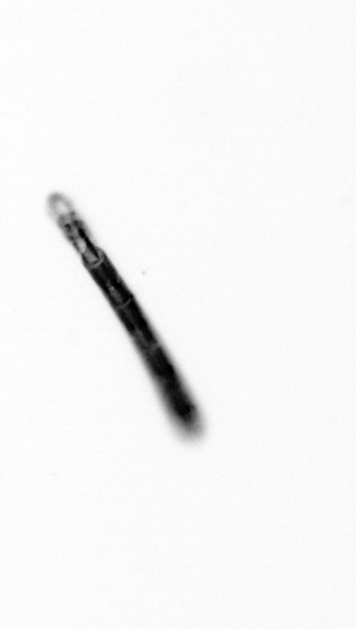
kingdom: Chromista
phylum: Ochrophyta
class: Bacillariophyceae
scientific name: Bacillariophyceae
